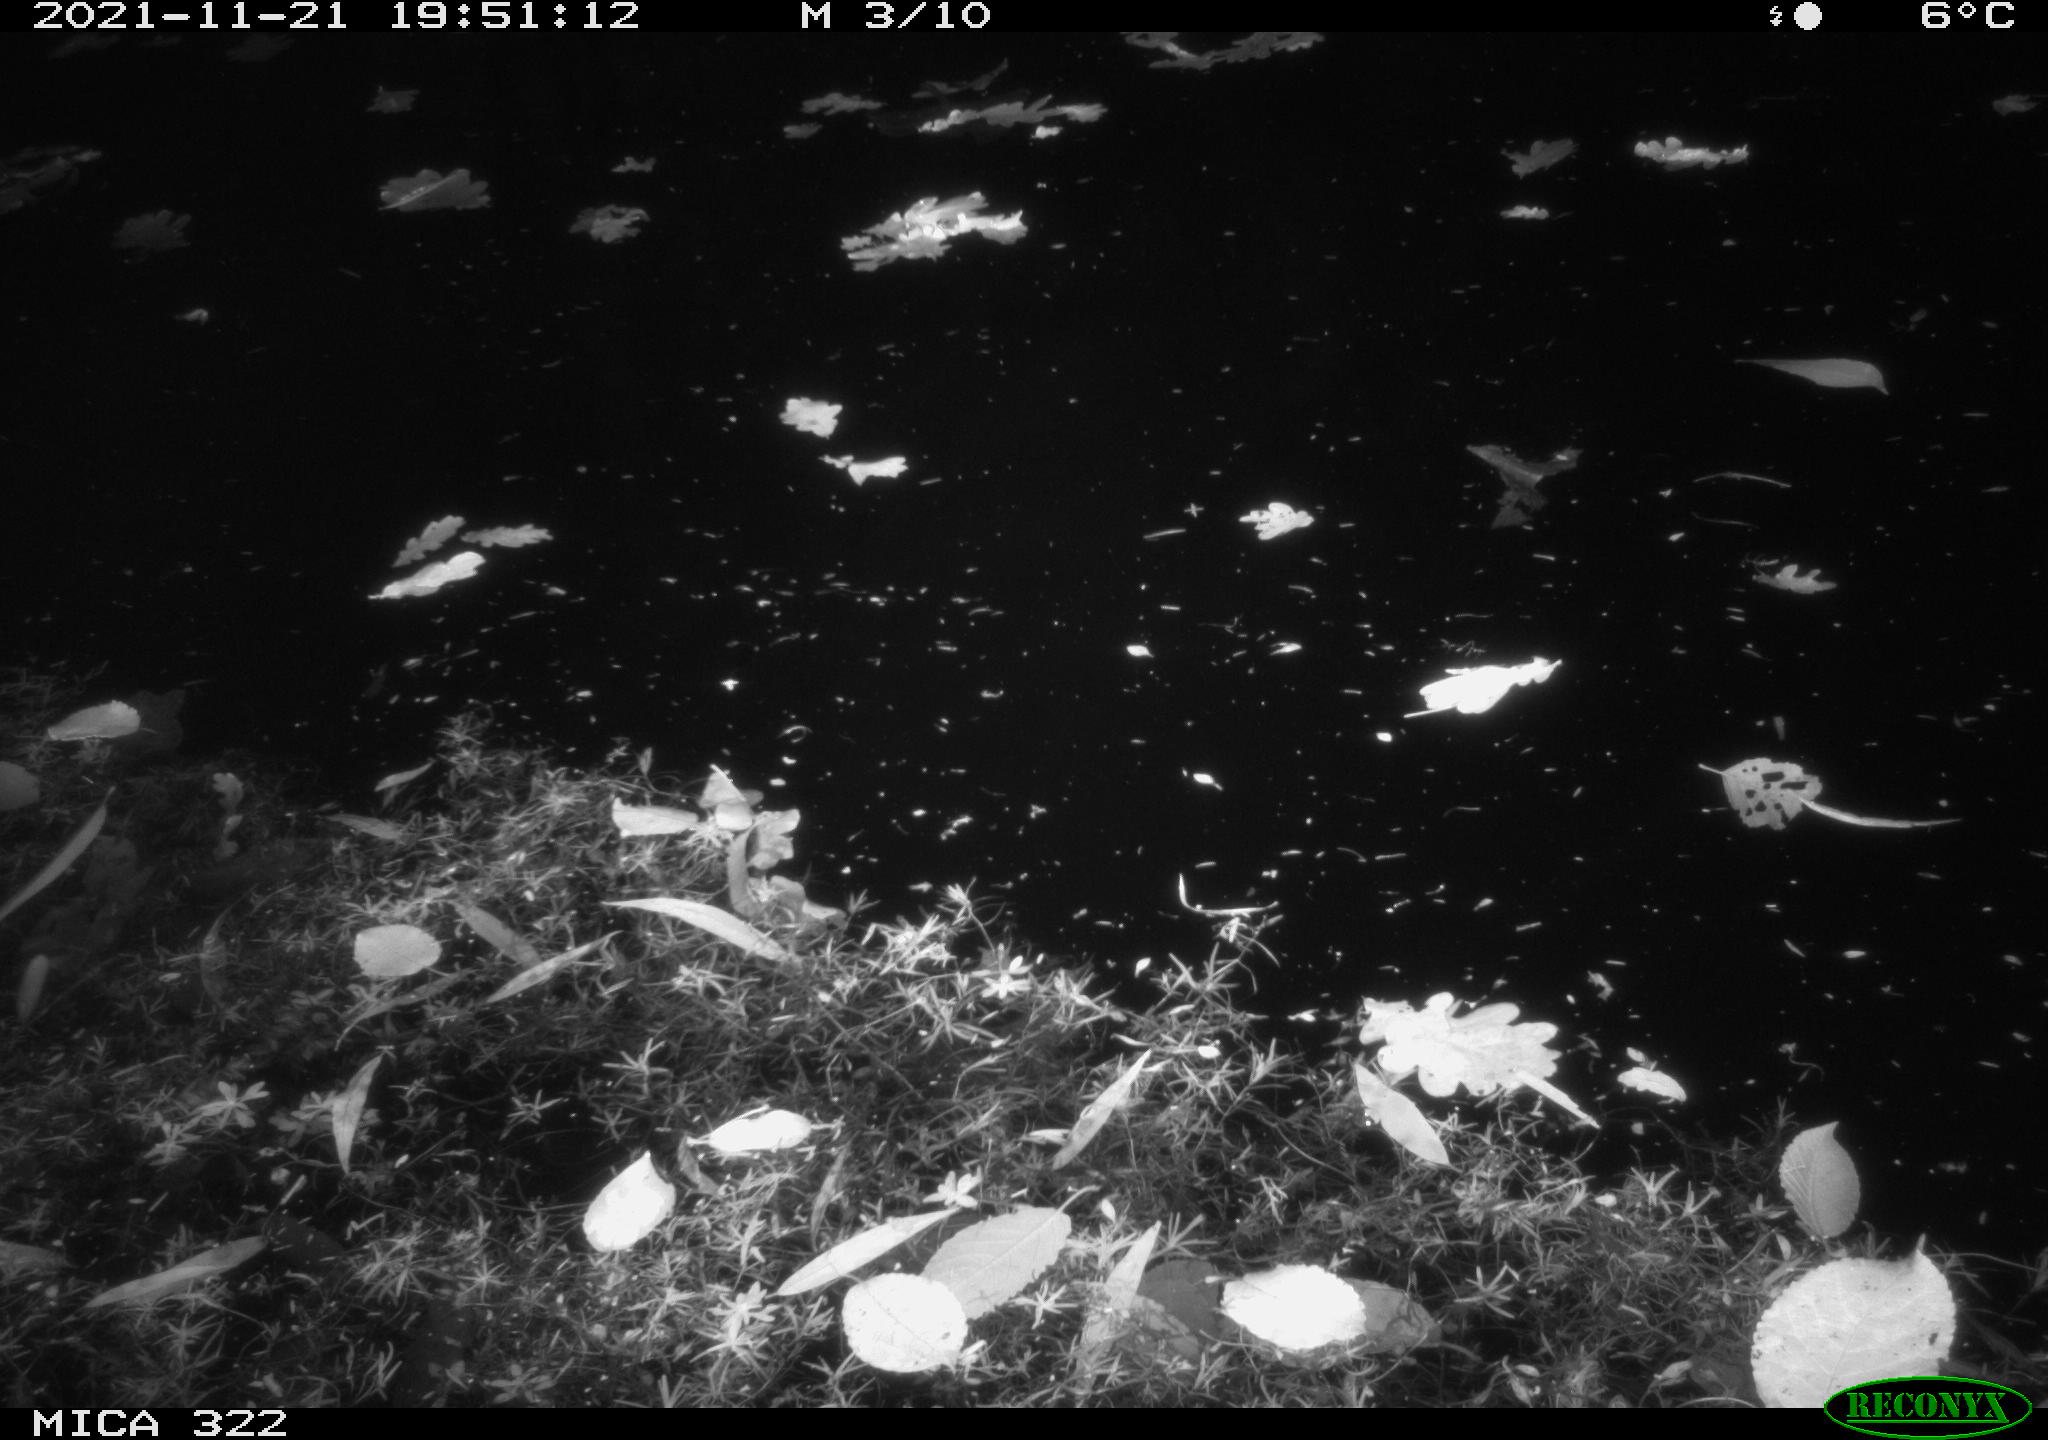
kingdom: Animalia
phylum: Chordata
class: Mammalia
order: Rodentia
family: Muridae
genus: Rattus
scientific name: Rattus norvegicus
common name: Brown rat
